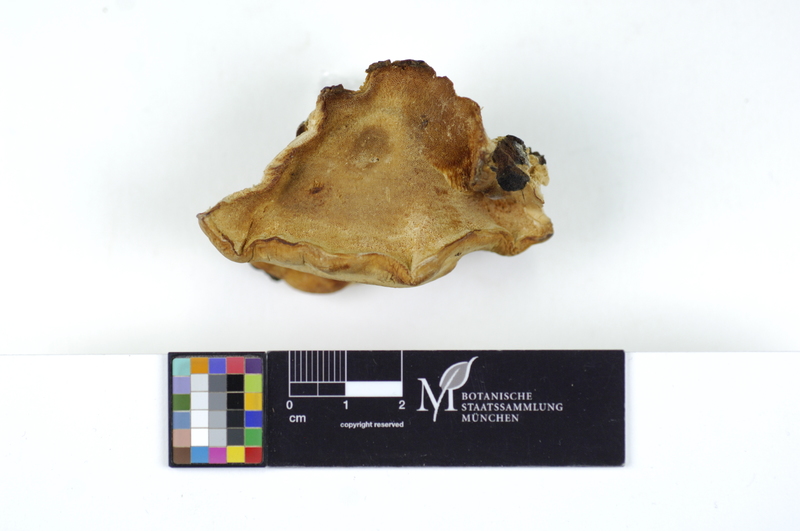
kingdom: Fungi
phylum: Basidiomycota
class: Agaricomycetes
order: Polyporales
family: Polyporaceae
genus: Dichomitus
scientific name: Dichomitus squalens
